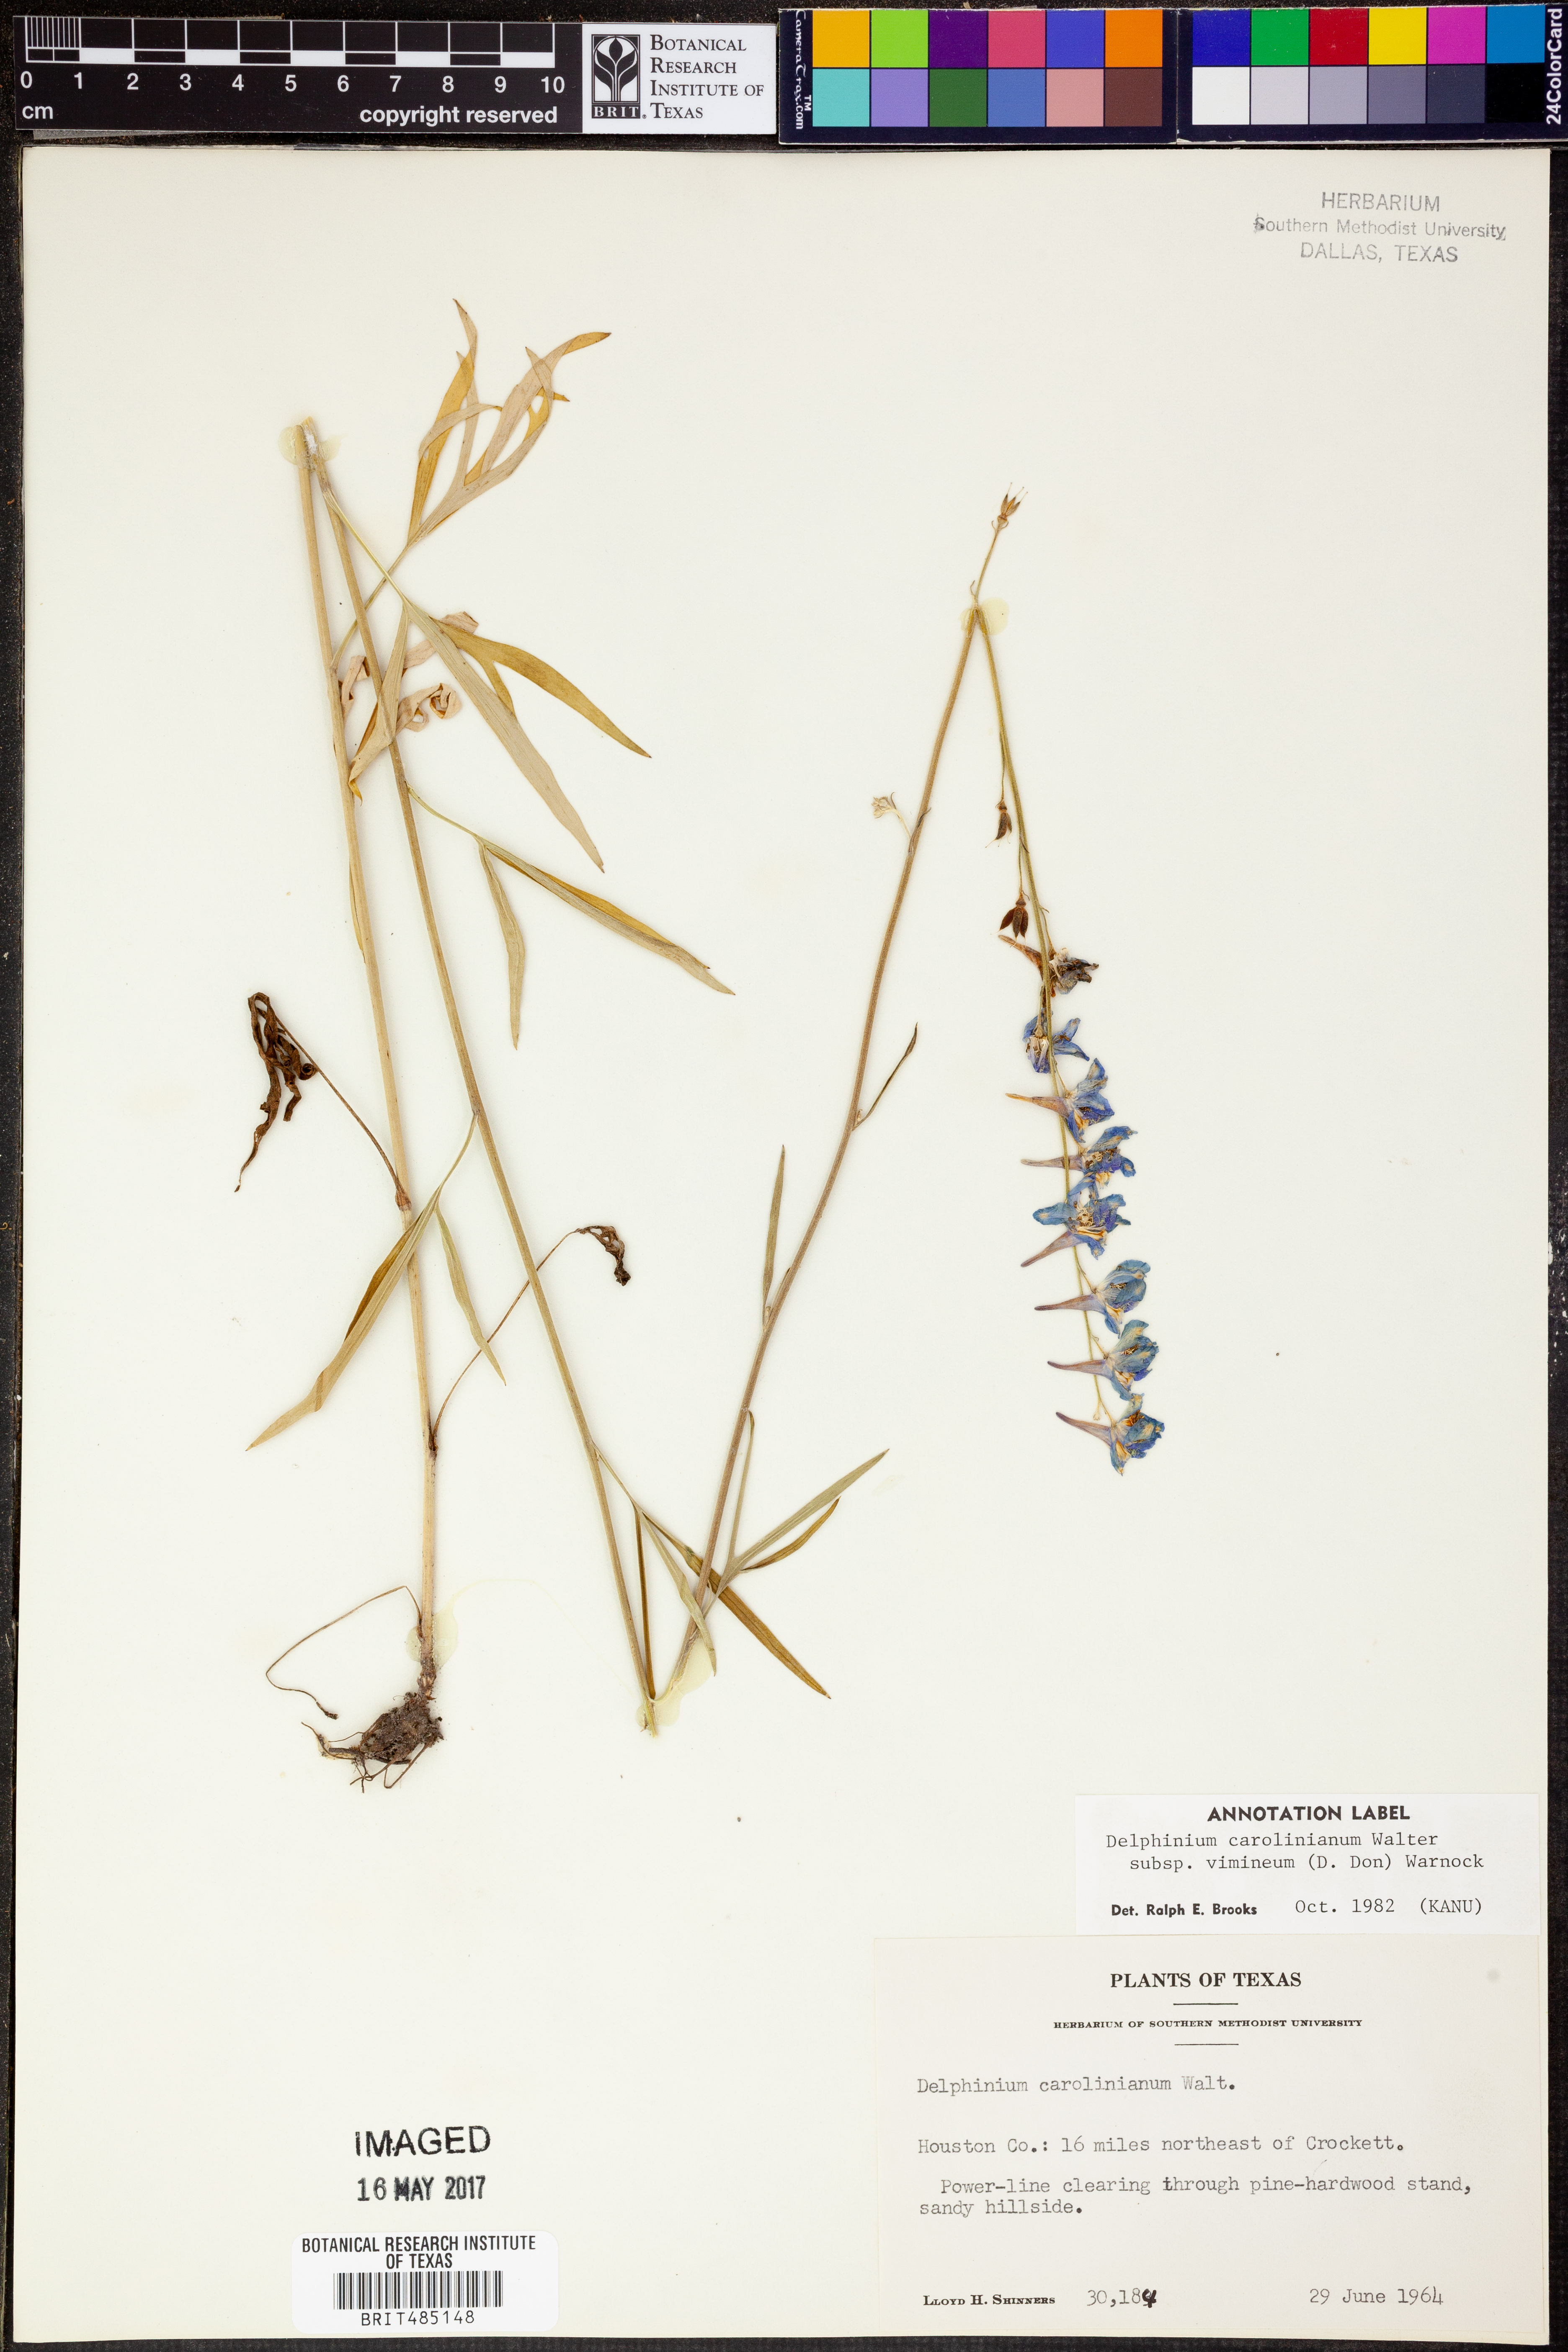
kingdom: Plantae
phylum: Tracheophyta
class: Magnoliopsida
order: Ranunculales
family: Ranunculaceae
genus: Delphinium
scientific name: Delphinium carolinianum
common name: Carolina larkspur
